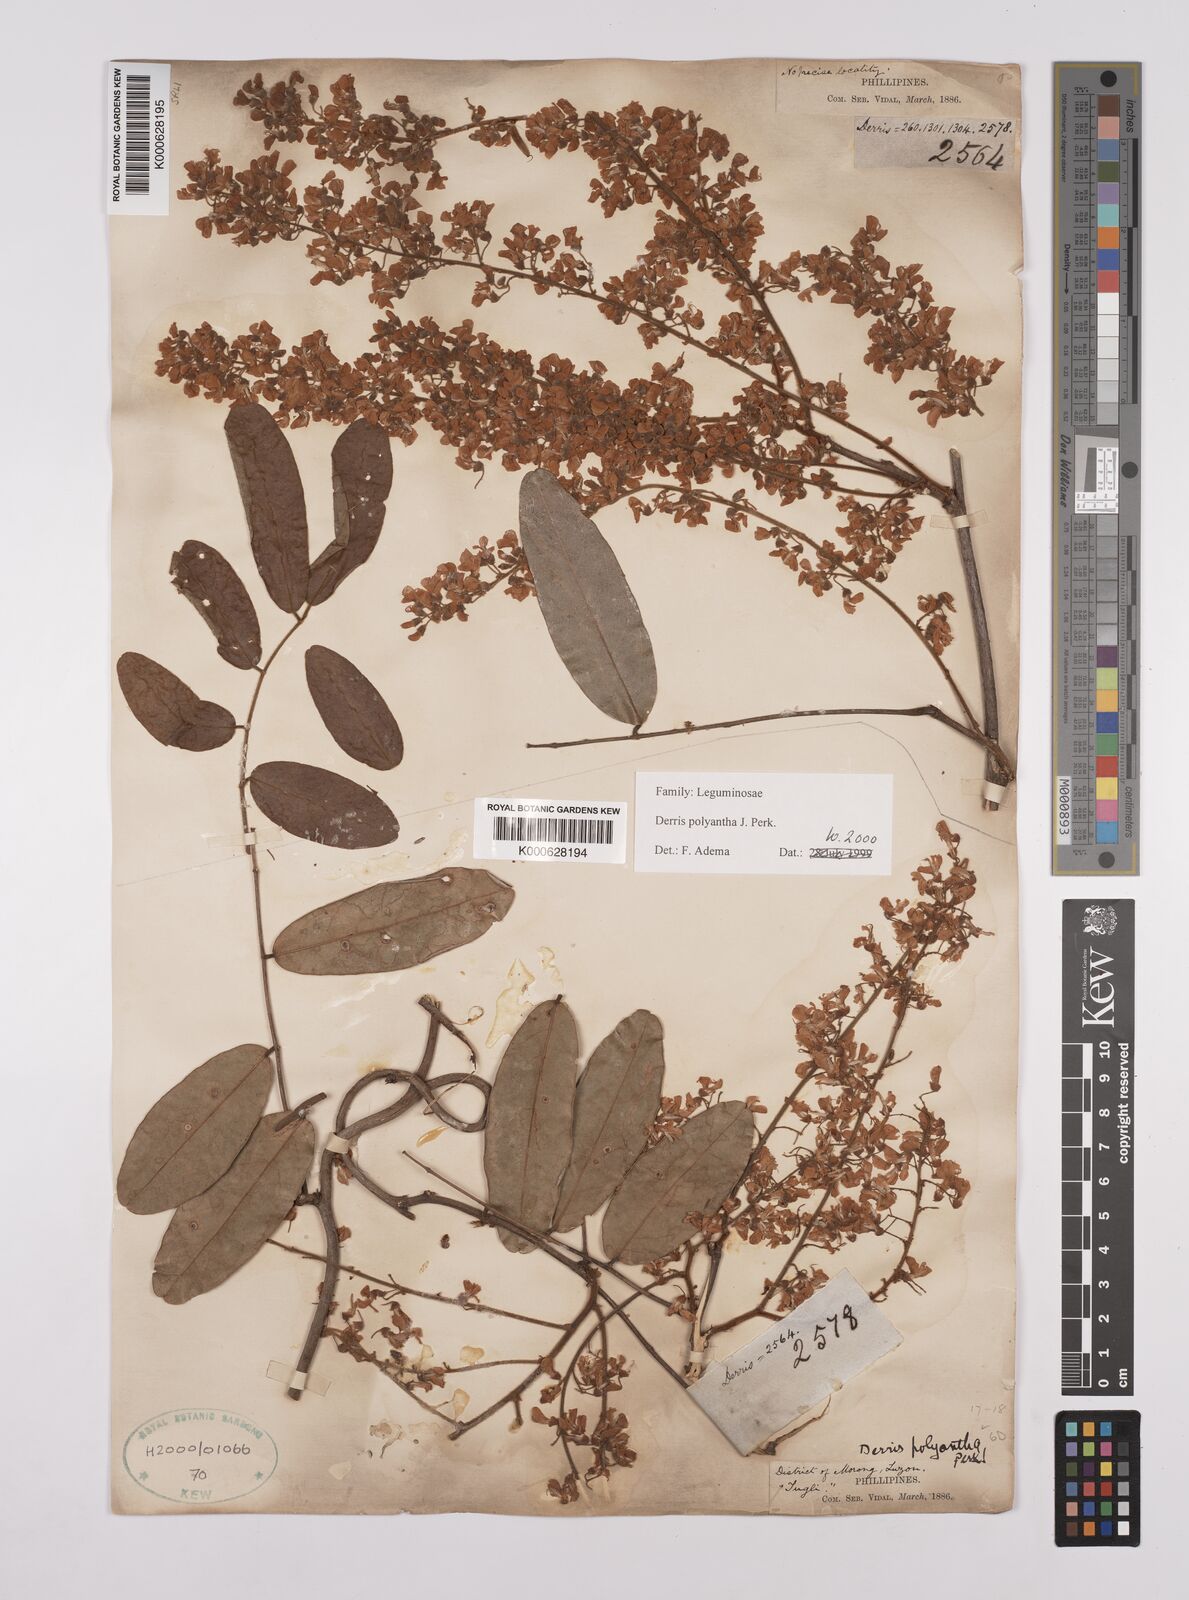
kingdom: Plantae
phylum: Tracheophyta
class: Magnoliopsida
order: Fabales
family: Fabaceae
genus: Derris
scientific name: Derris polyantha
